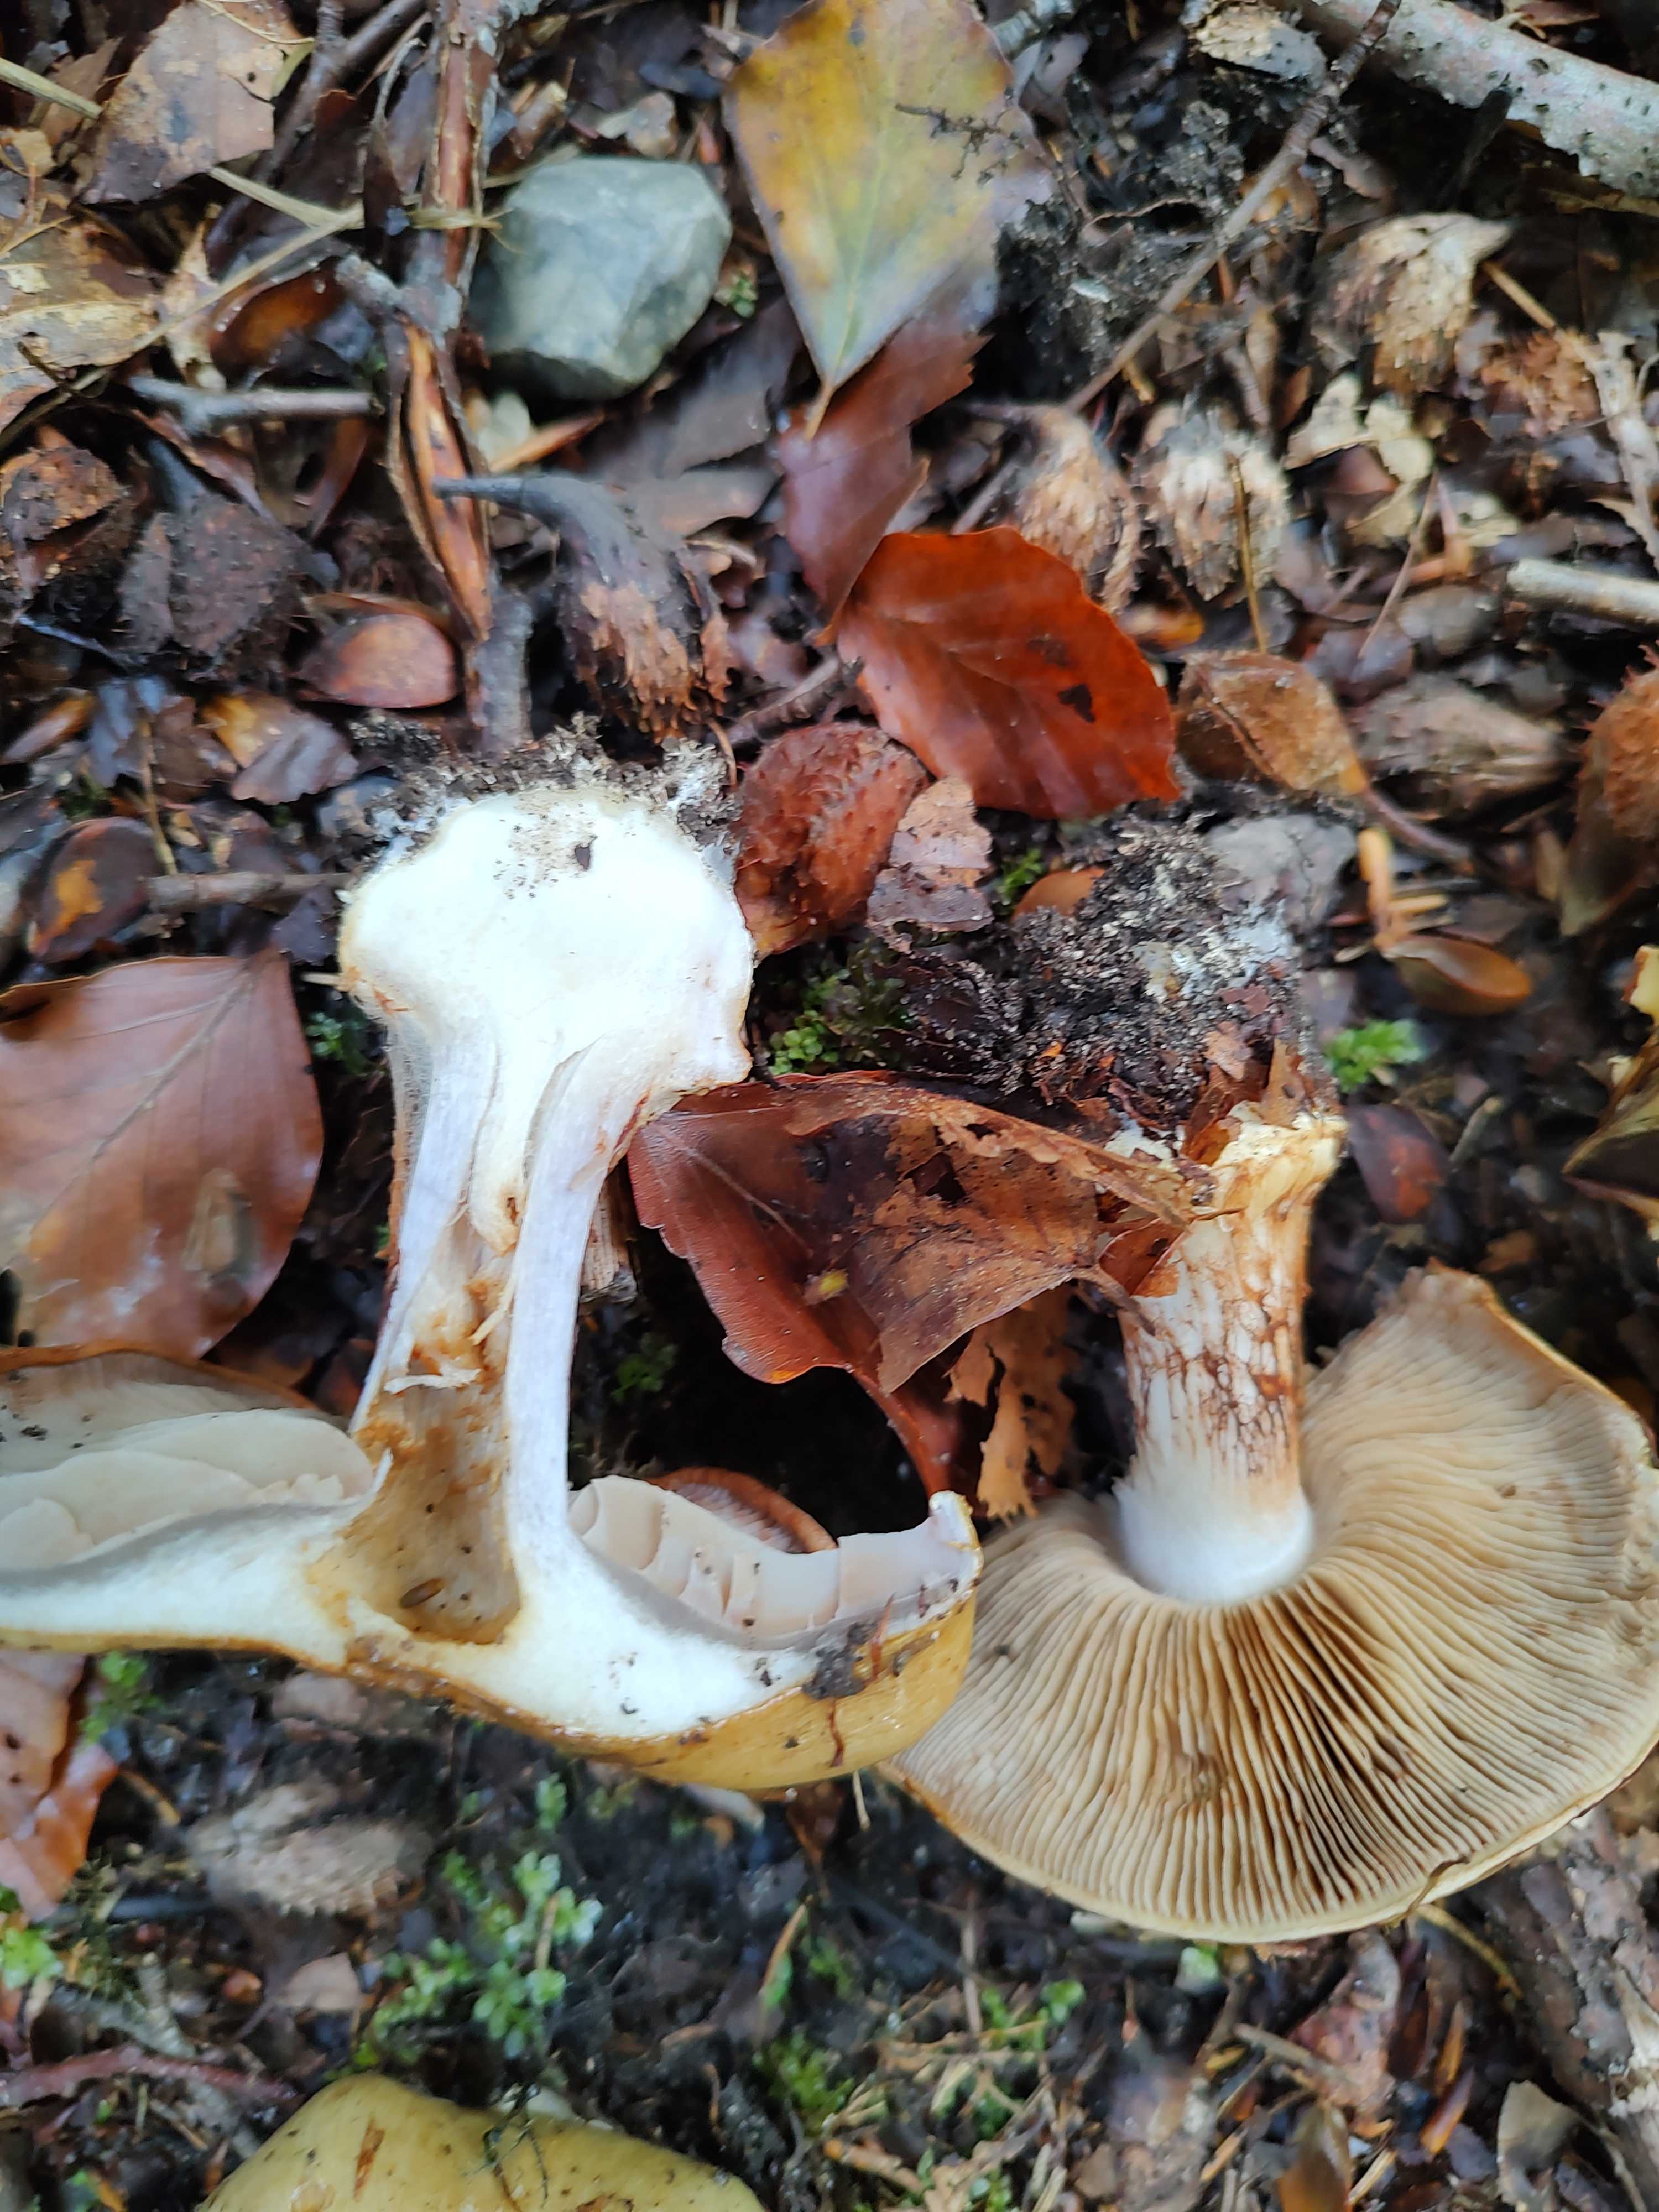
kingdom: Fungi
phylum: Basidiomycota
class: Agaricomycetes
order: Agaricales
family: Cortinariaceae
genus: Cortinarius
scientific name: Cortinarius anserinus
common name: bøge-slørhat
